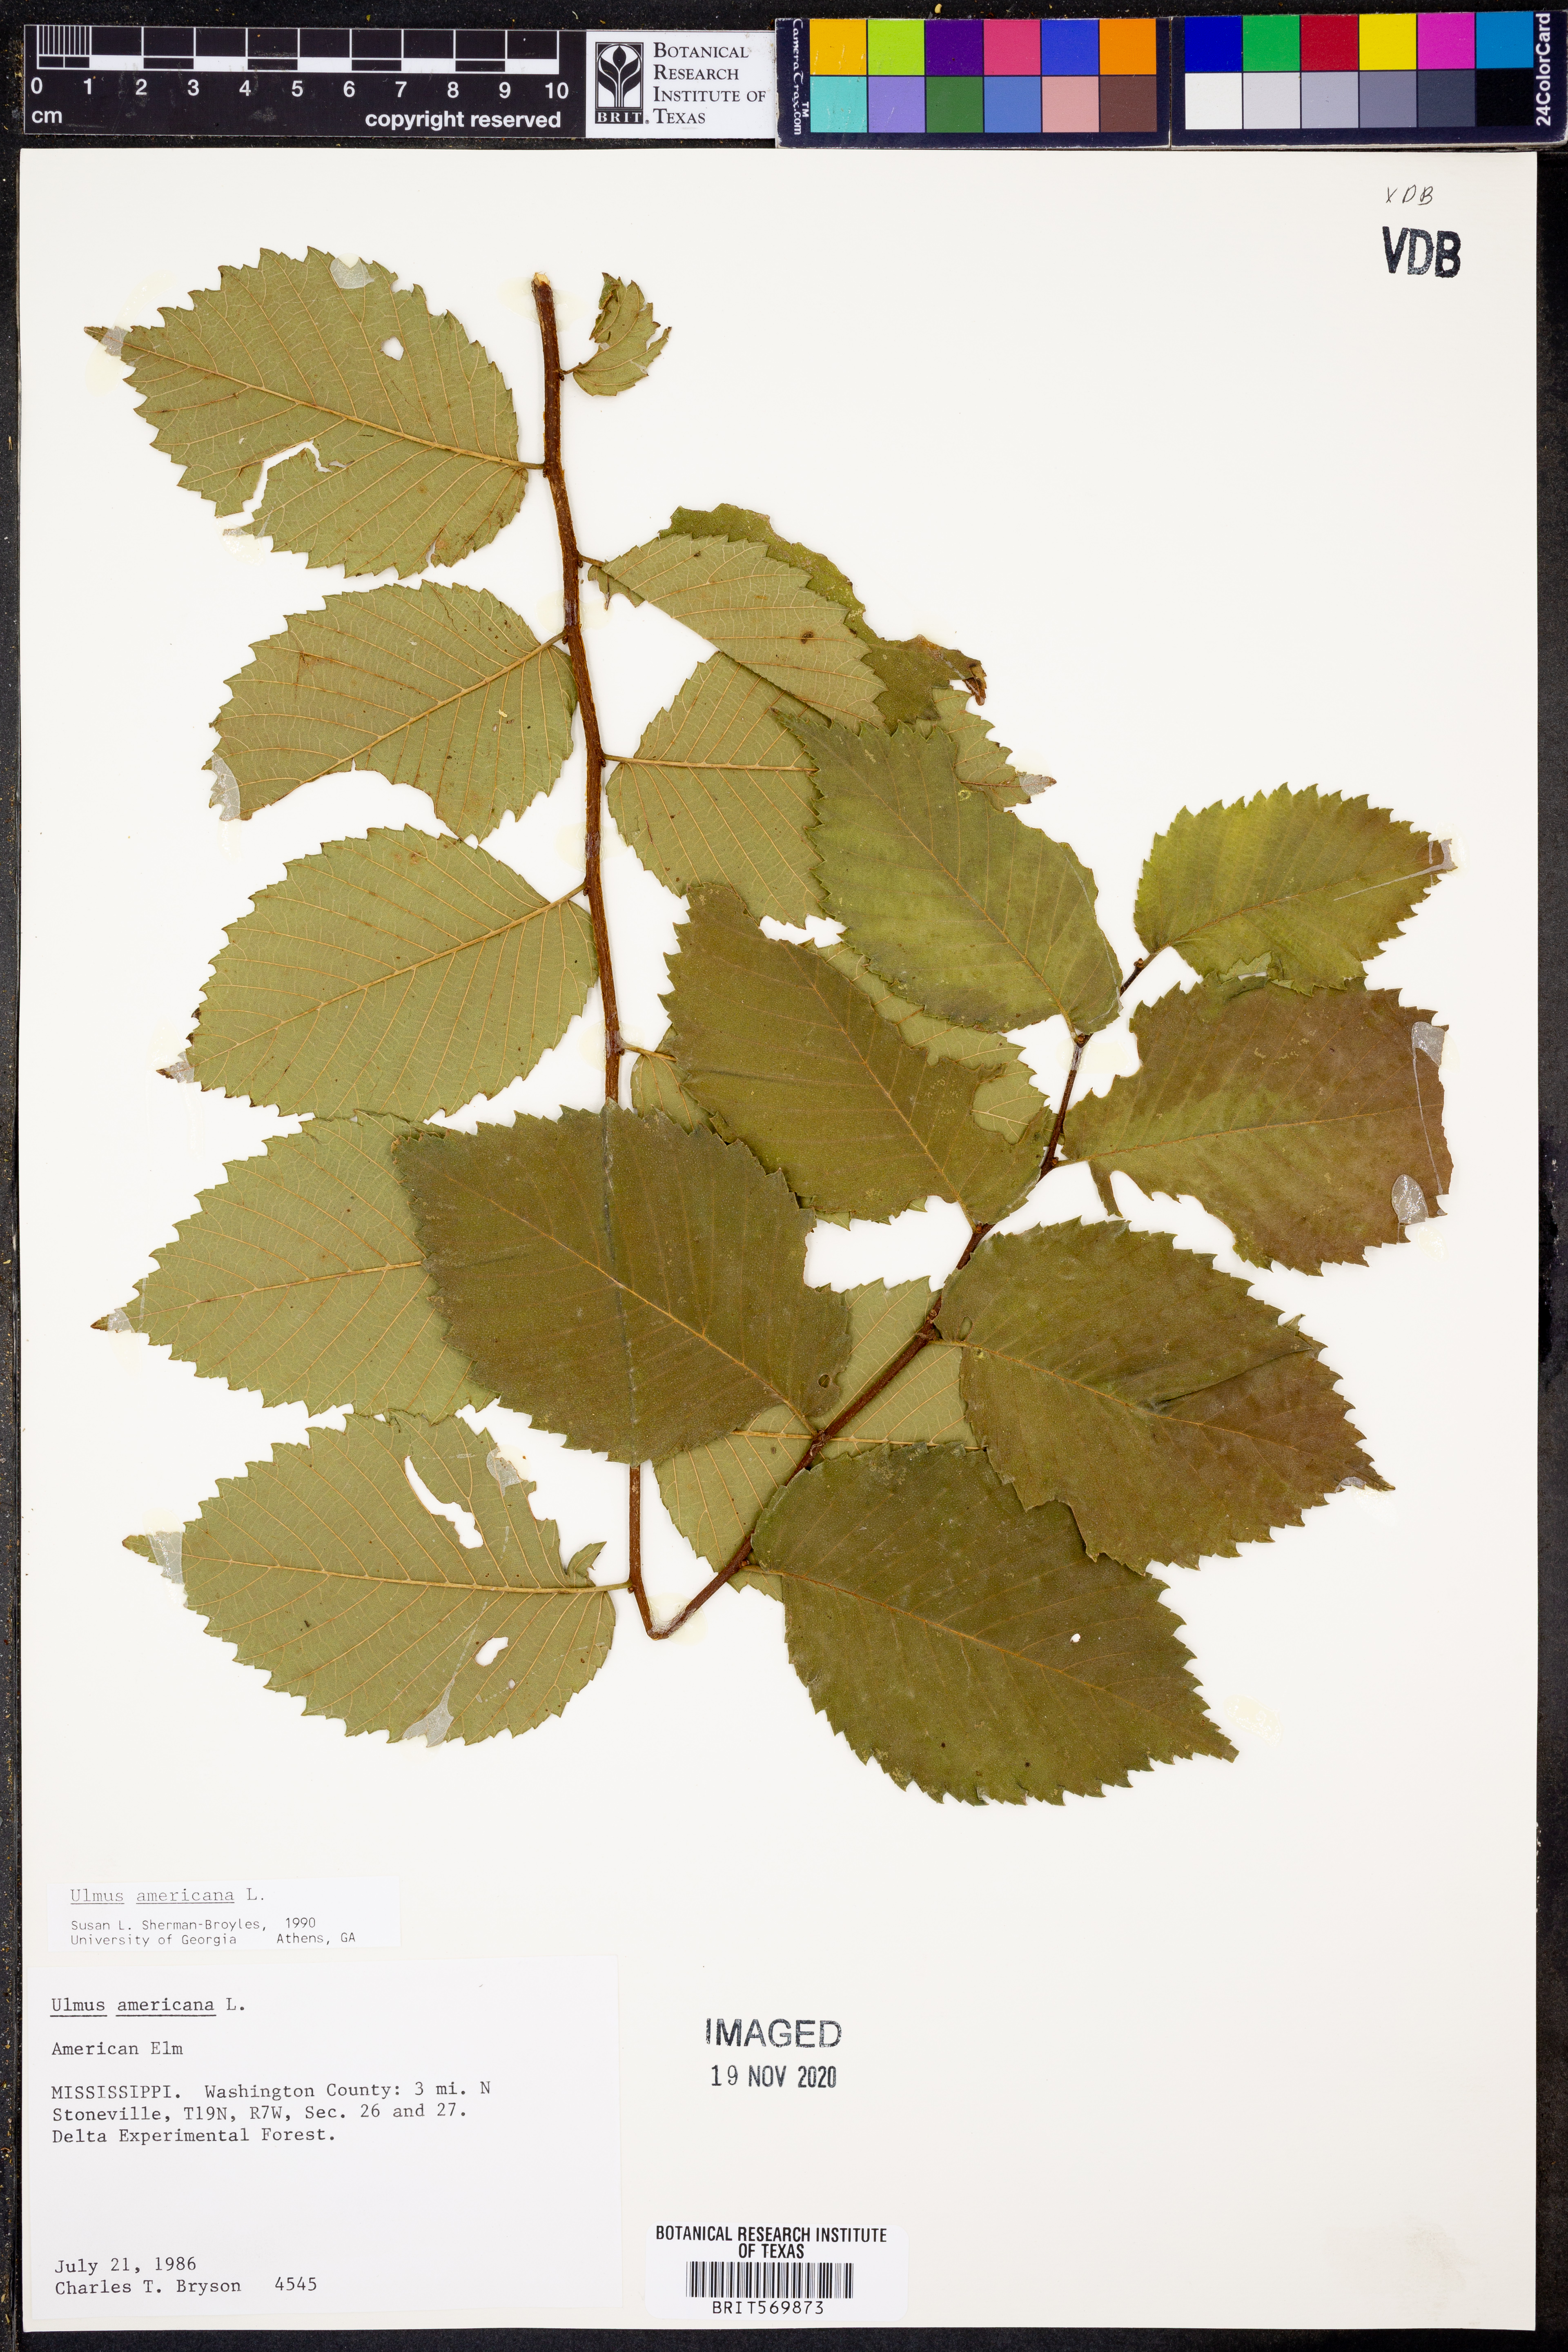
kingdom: Plantae
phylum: Tracheophyta
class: Magnoliopsida
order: Rosales
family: Ulmaceae
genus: Ulmus
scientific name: Ulmus americana
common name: American elm
